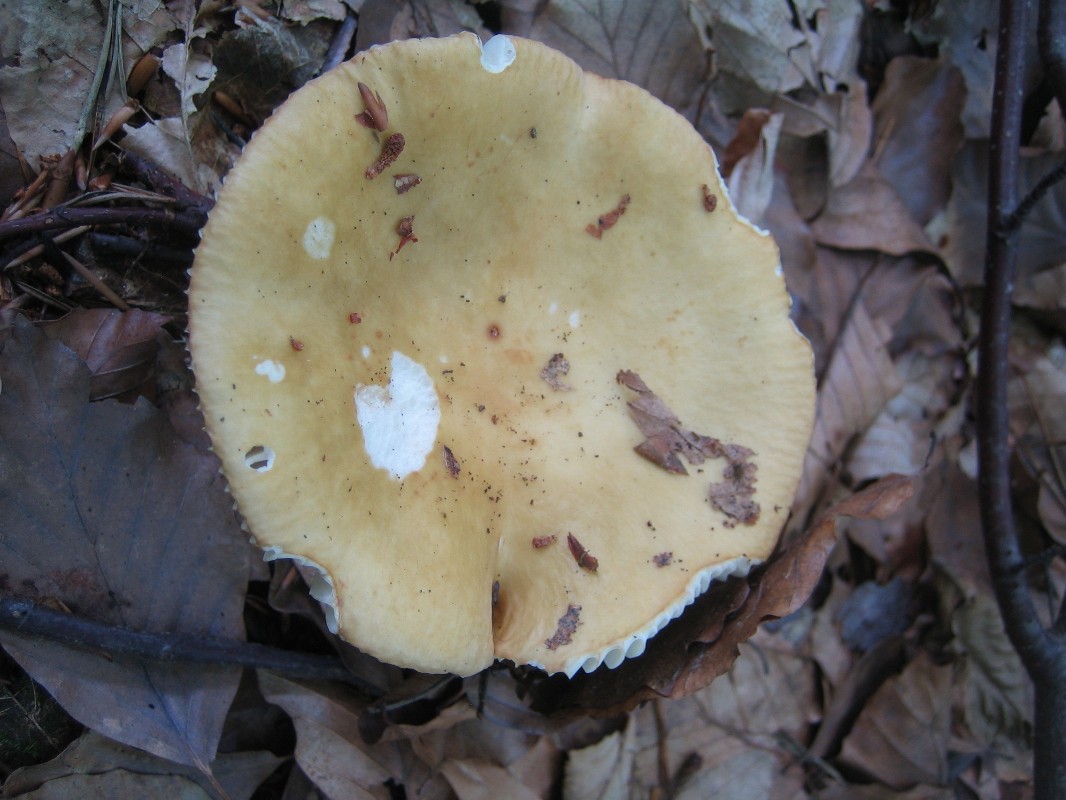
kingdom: Fungi
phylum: Basidiomycota
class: Agaricomycetes
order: Russulales
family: Russulaceae
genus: Russula
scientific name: Russula ochroleuca
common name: okkergul skørhat
